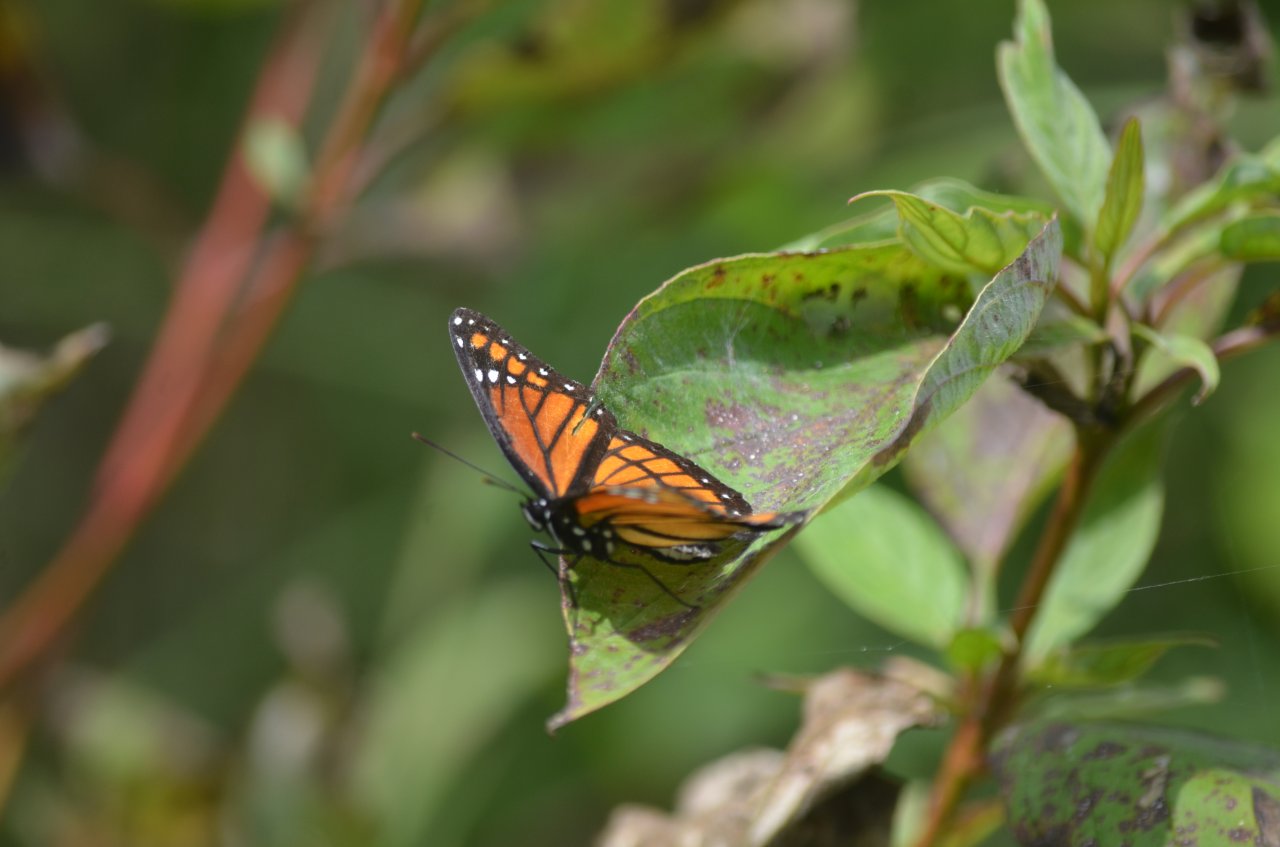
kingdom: Animalia
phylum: Arthropoda
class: Insecta
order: Lepidoptera
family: Nymphalidae
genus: Limenitis
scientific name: Limenitis archippus
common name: Viceroy
